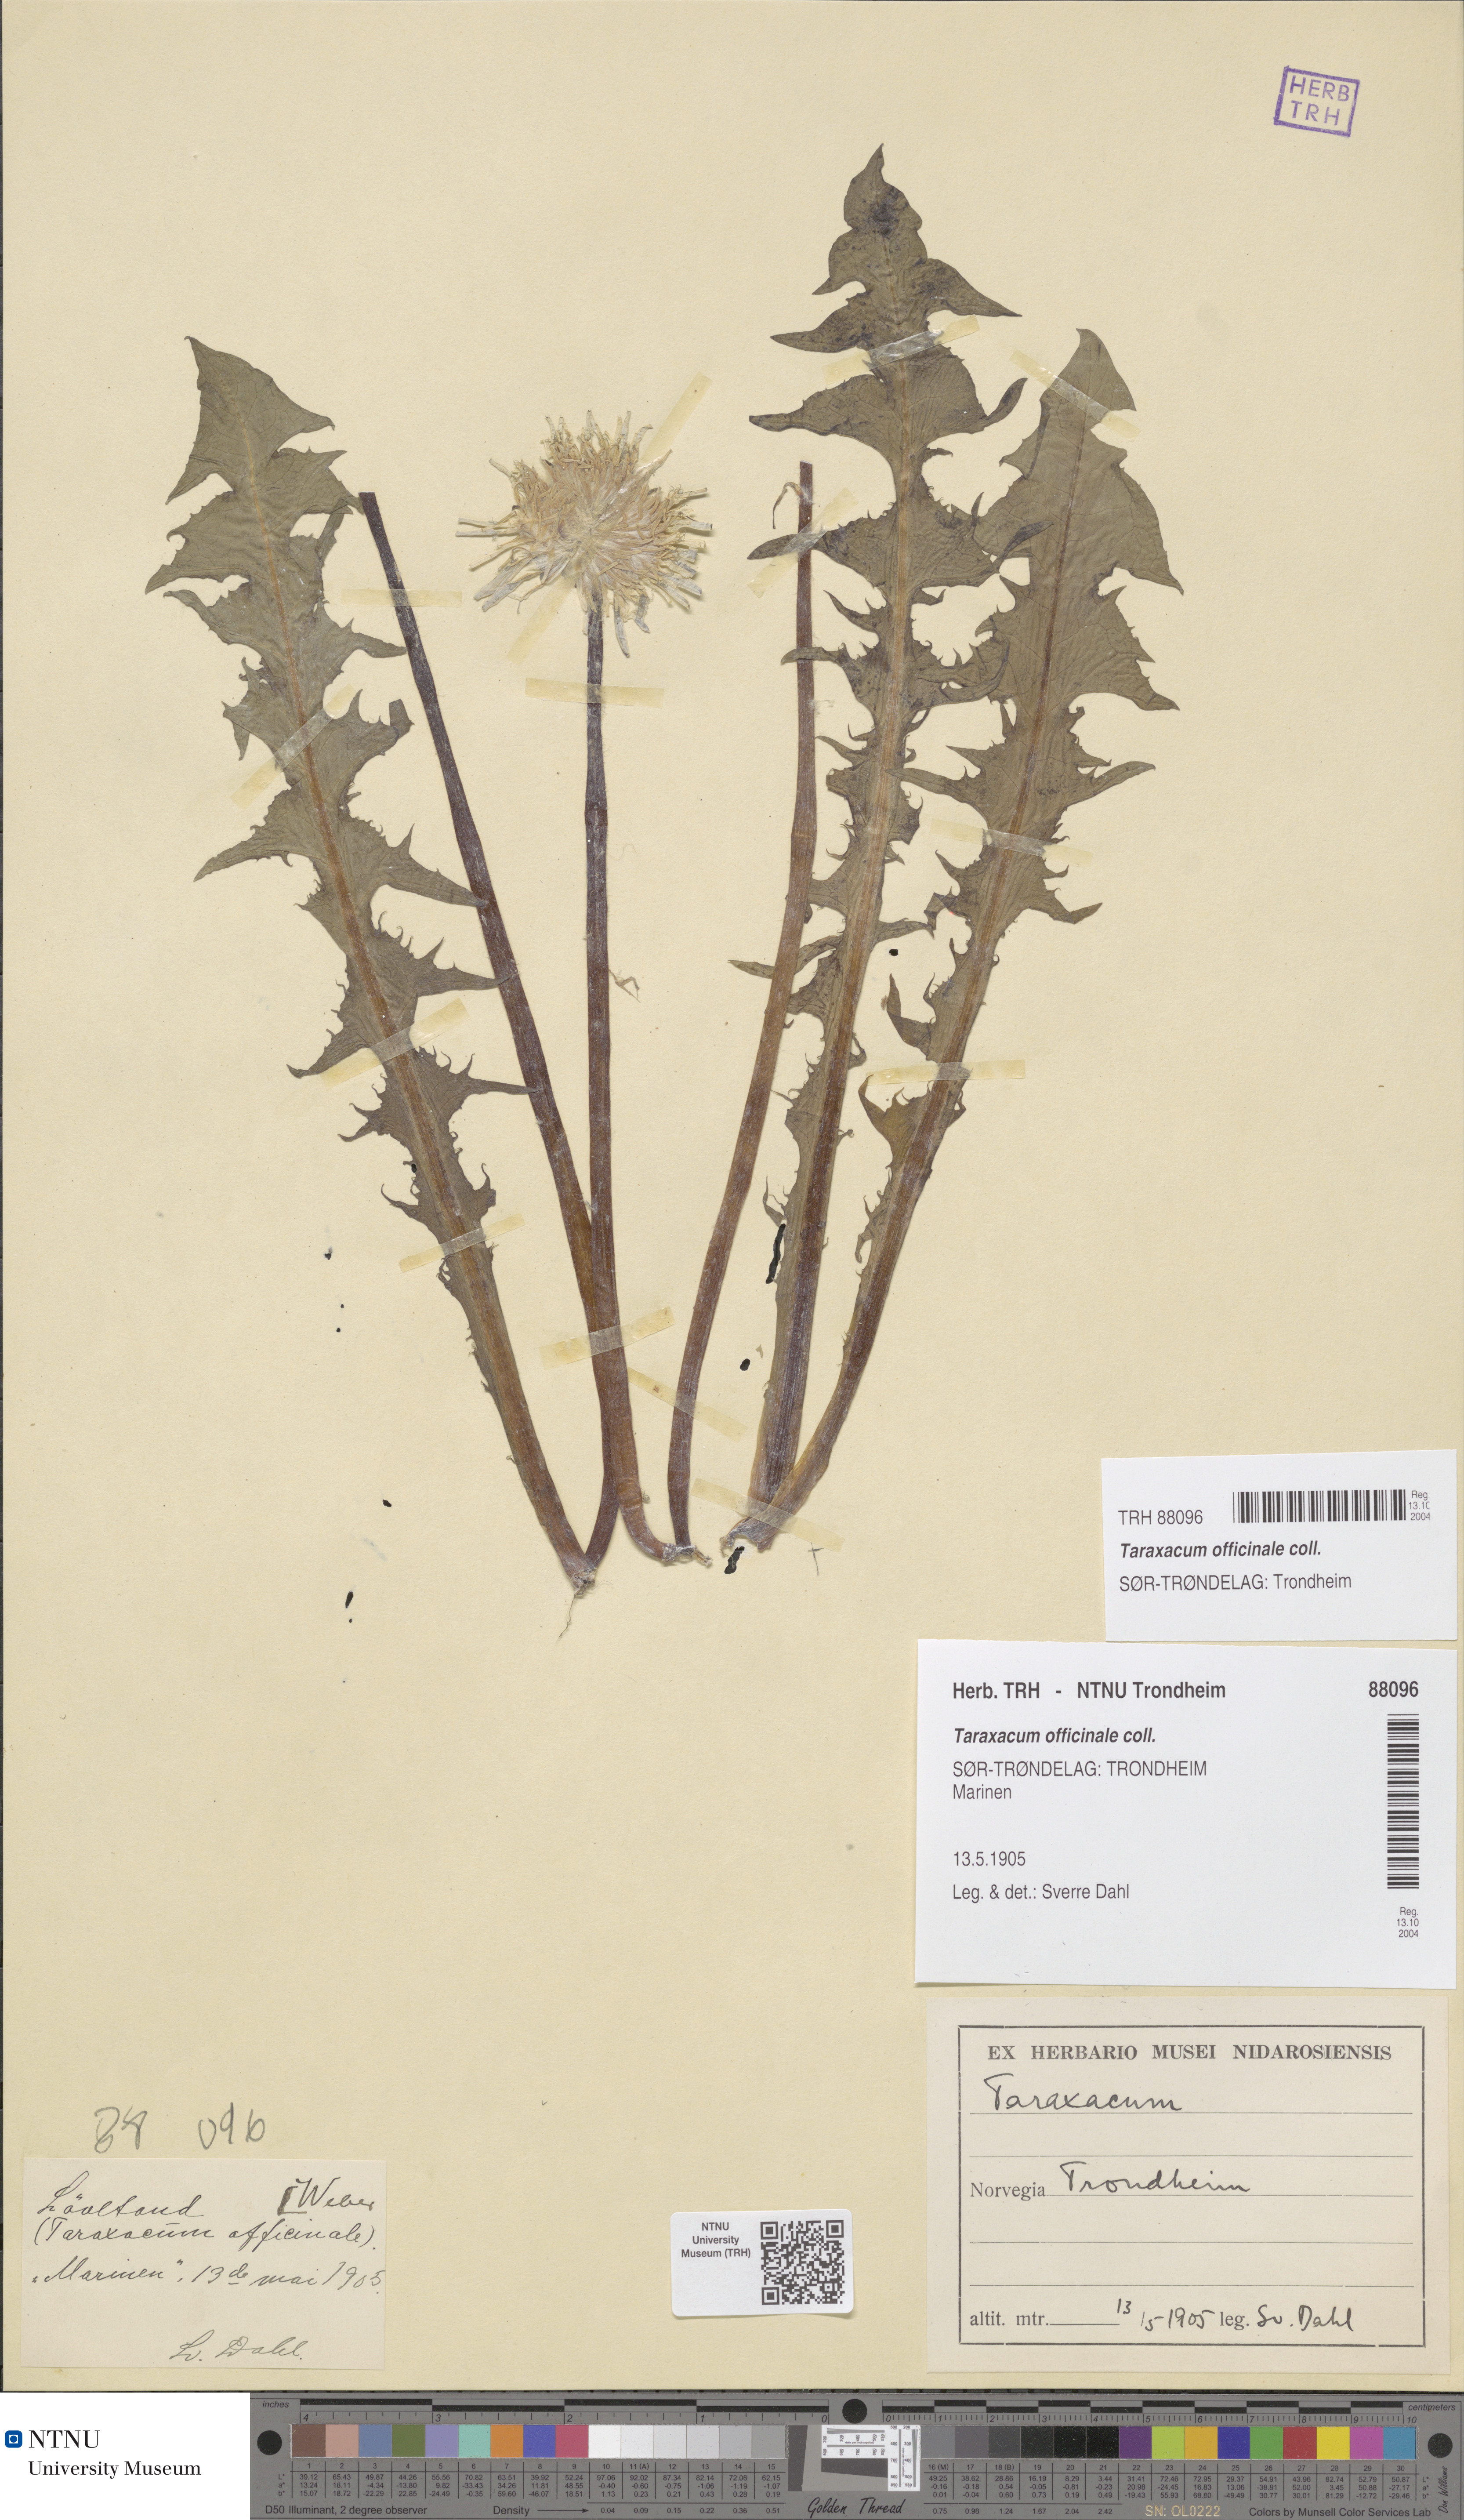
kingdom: Plantae
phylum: Tracheophyta
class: Magnoliopsida
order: Asterales
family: Asteraceae
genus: Taraxacum
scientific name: Taraxacum officinale
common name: Common dandelion
